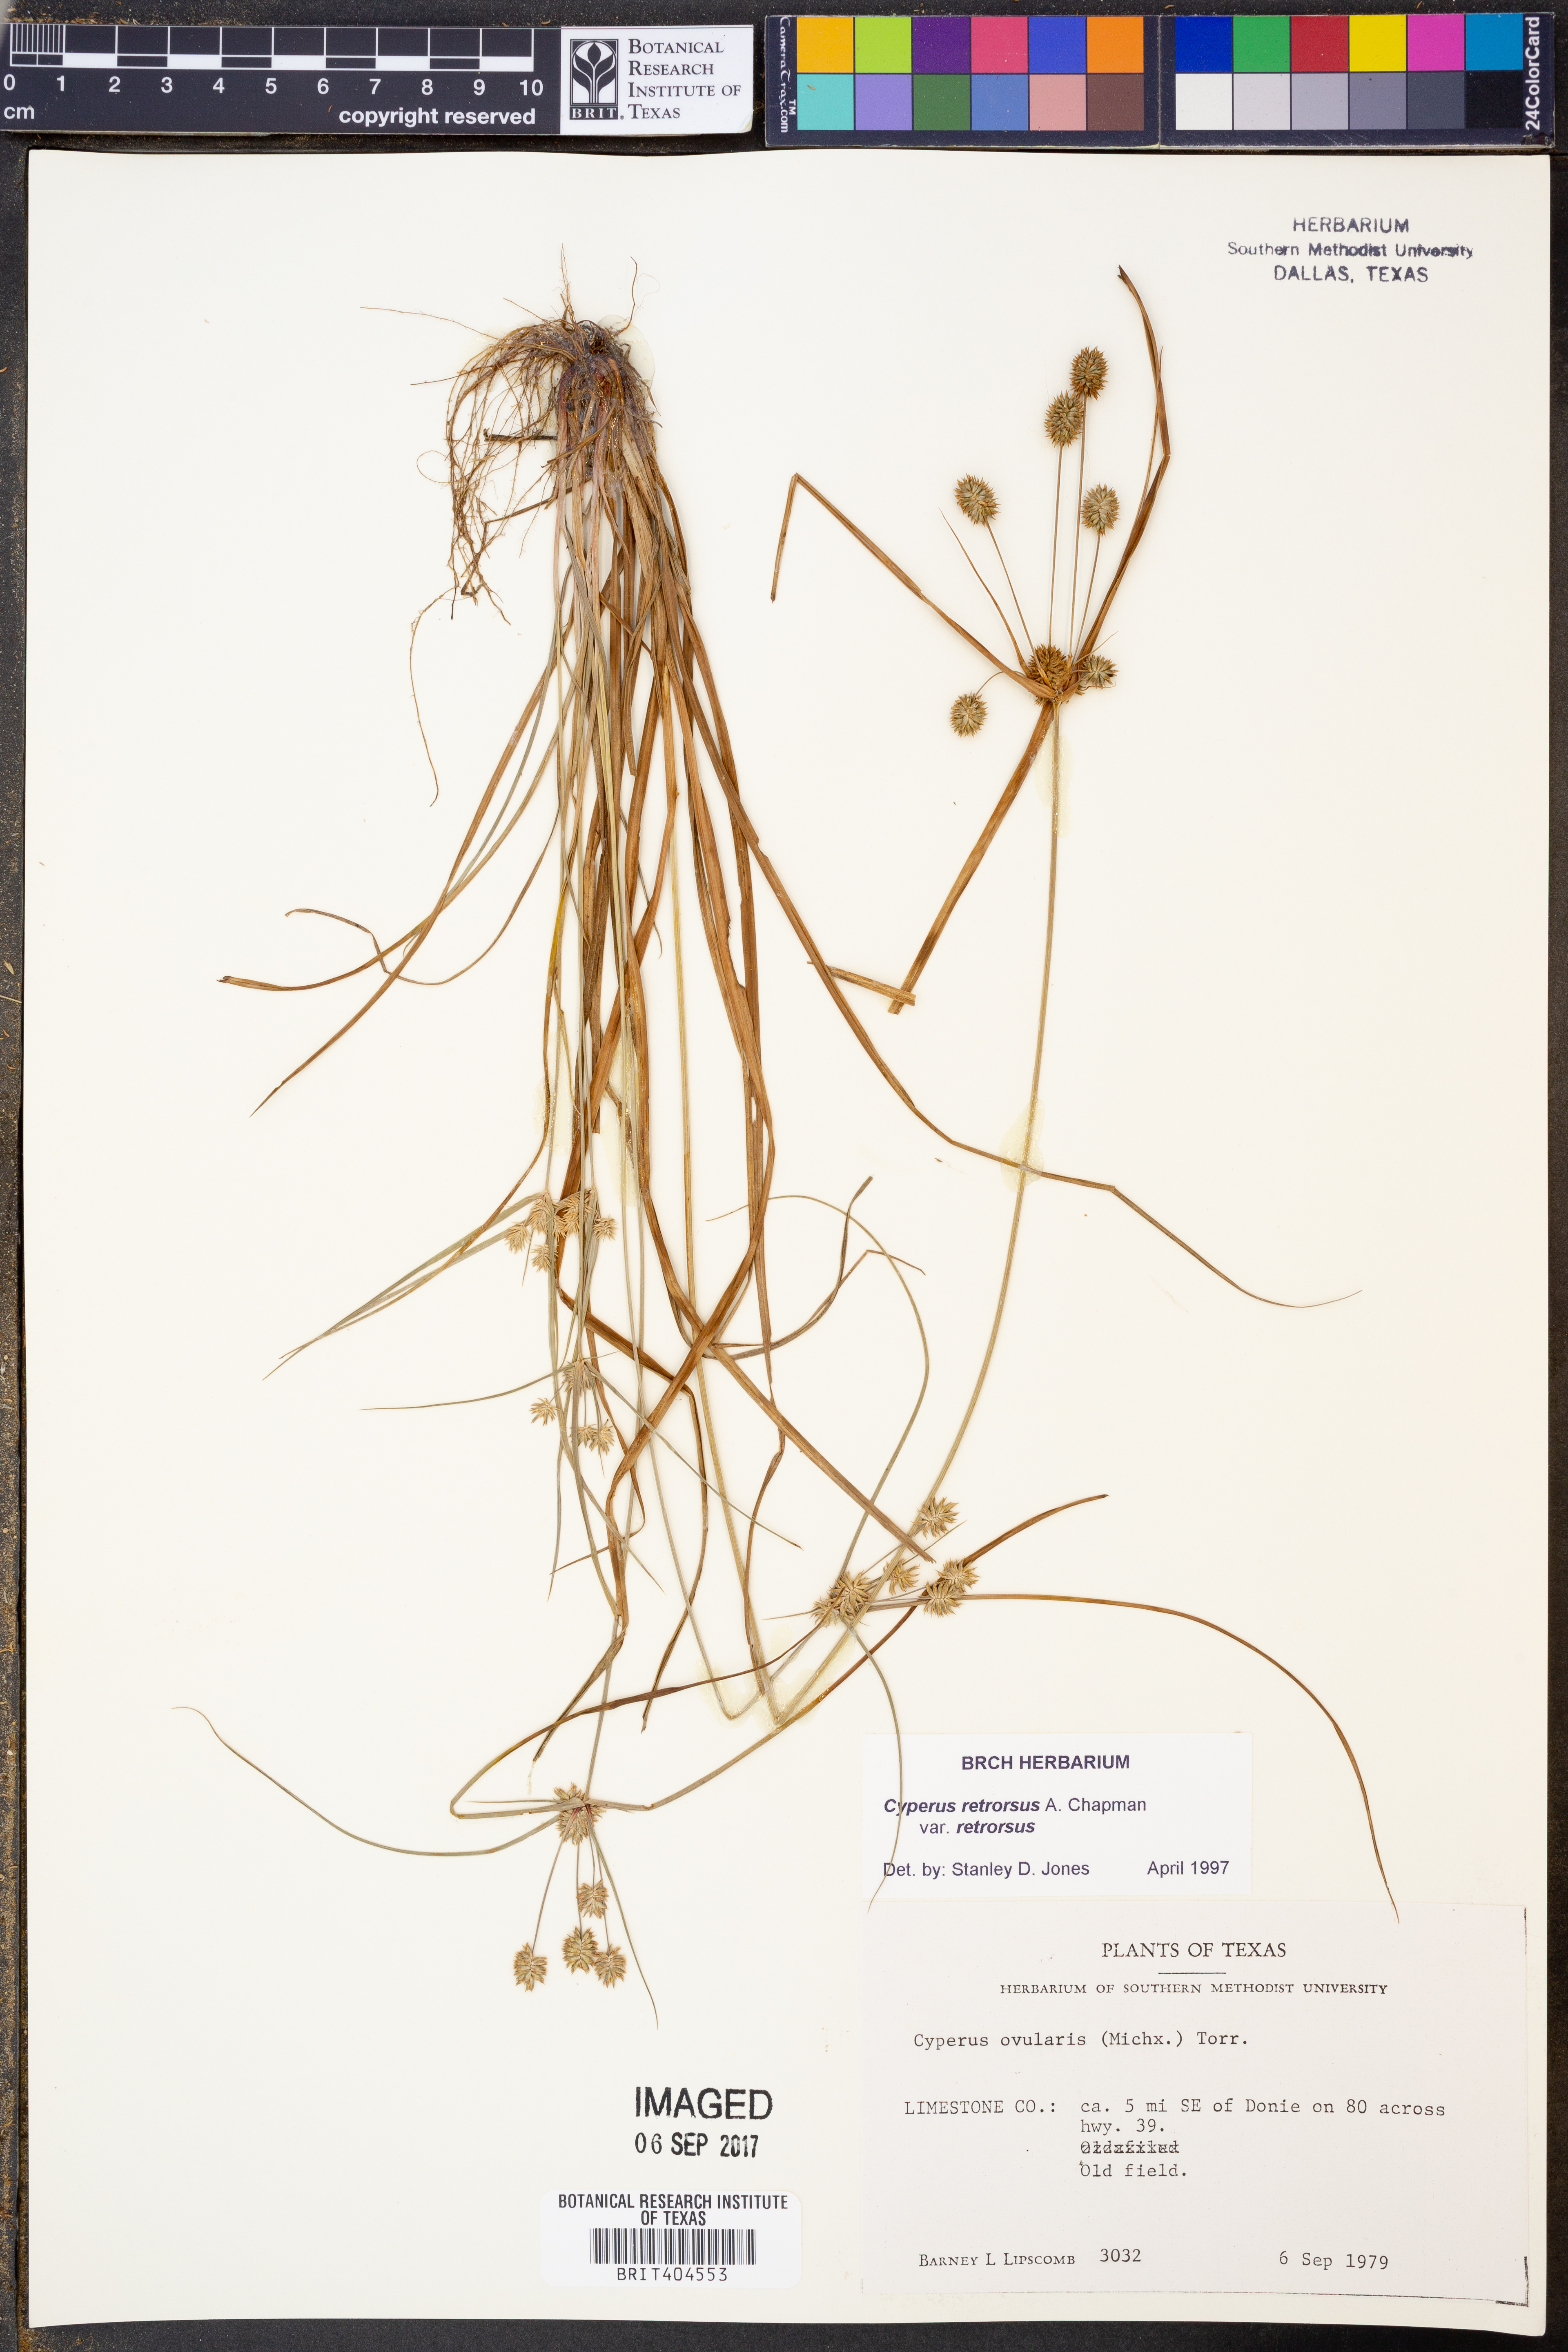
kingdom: Plantae
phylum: Tracheophyta
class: Liliopsida
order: Poales
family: Cyperaceae
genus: Cyperus
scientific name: Cyperus retrorsus
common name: Pinebarren flat sedge
